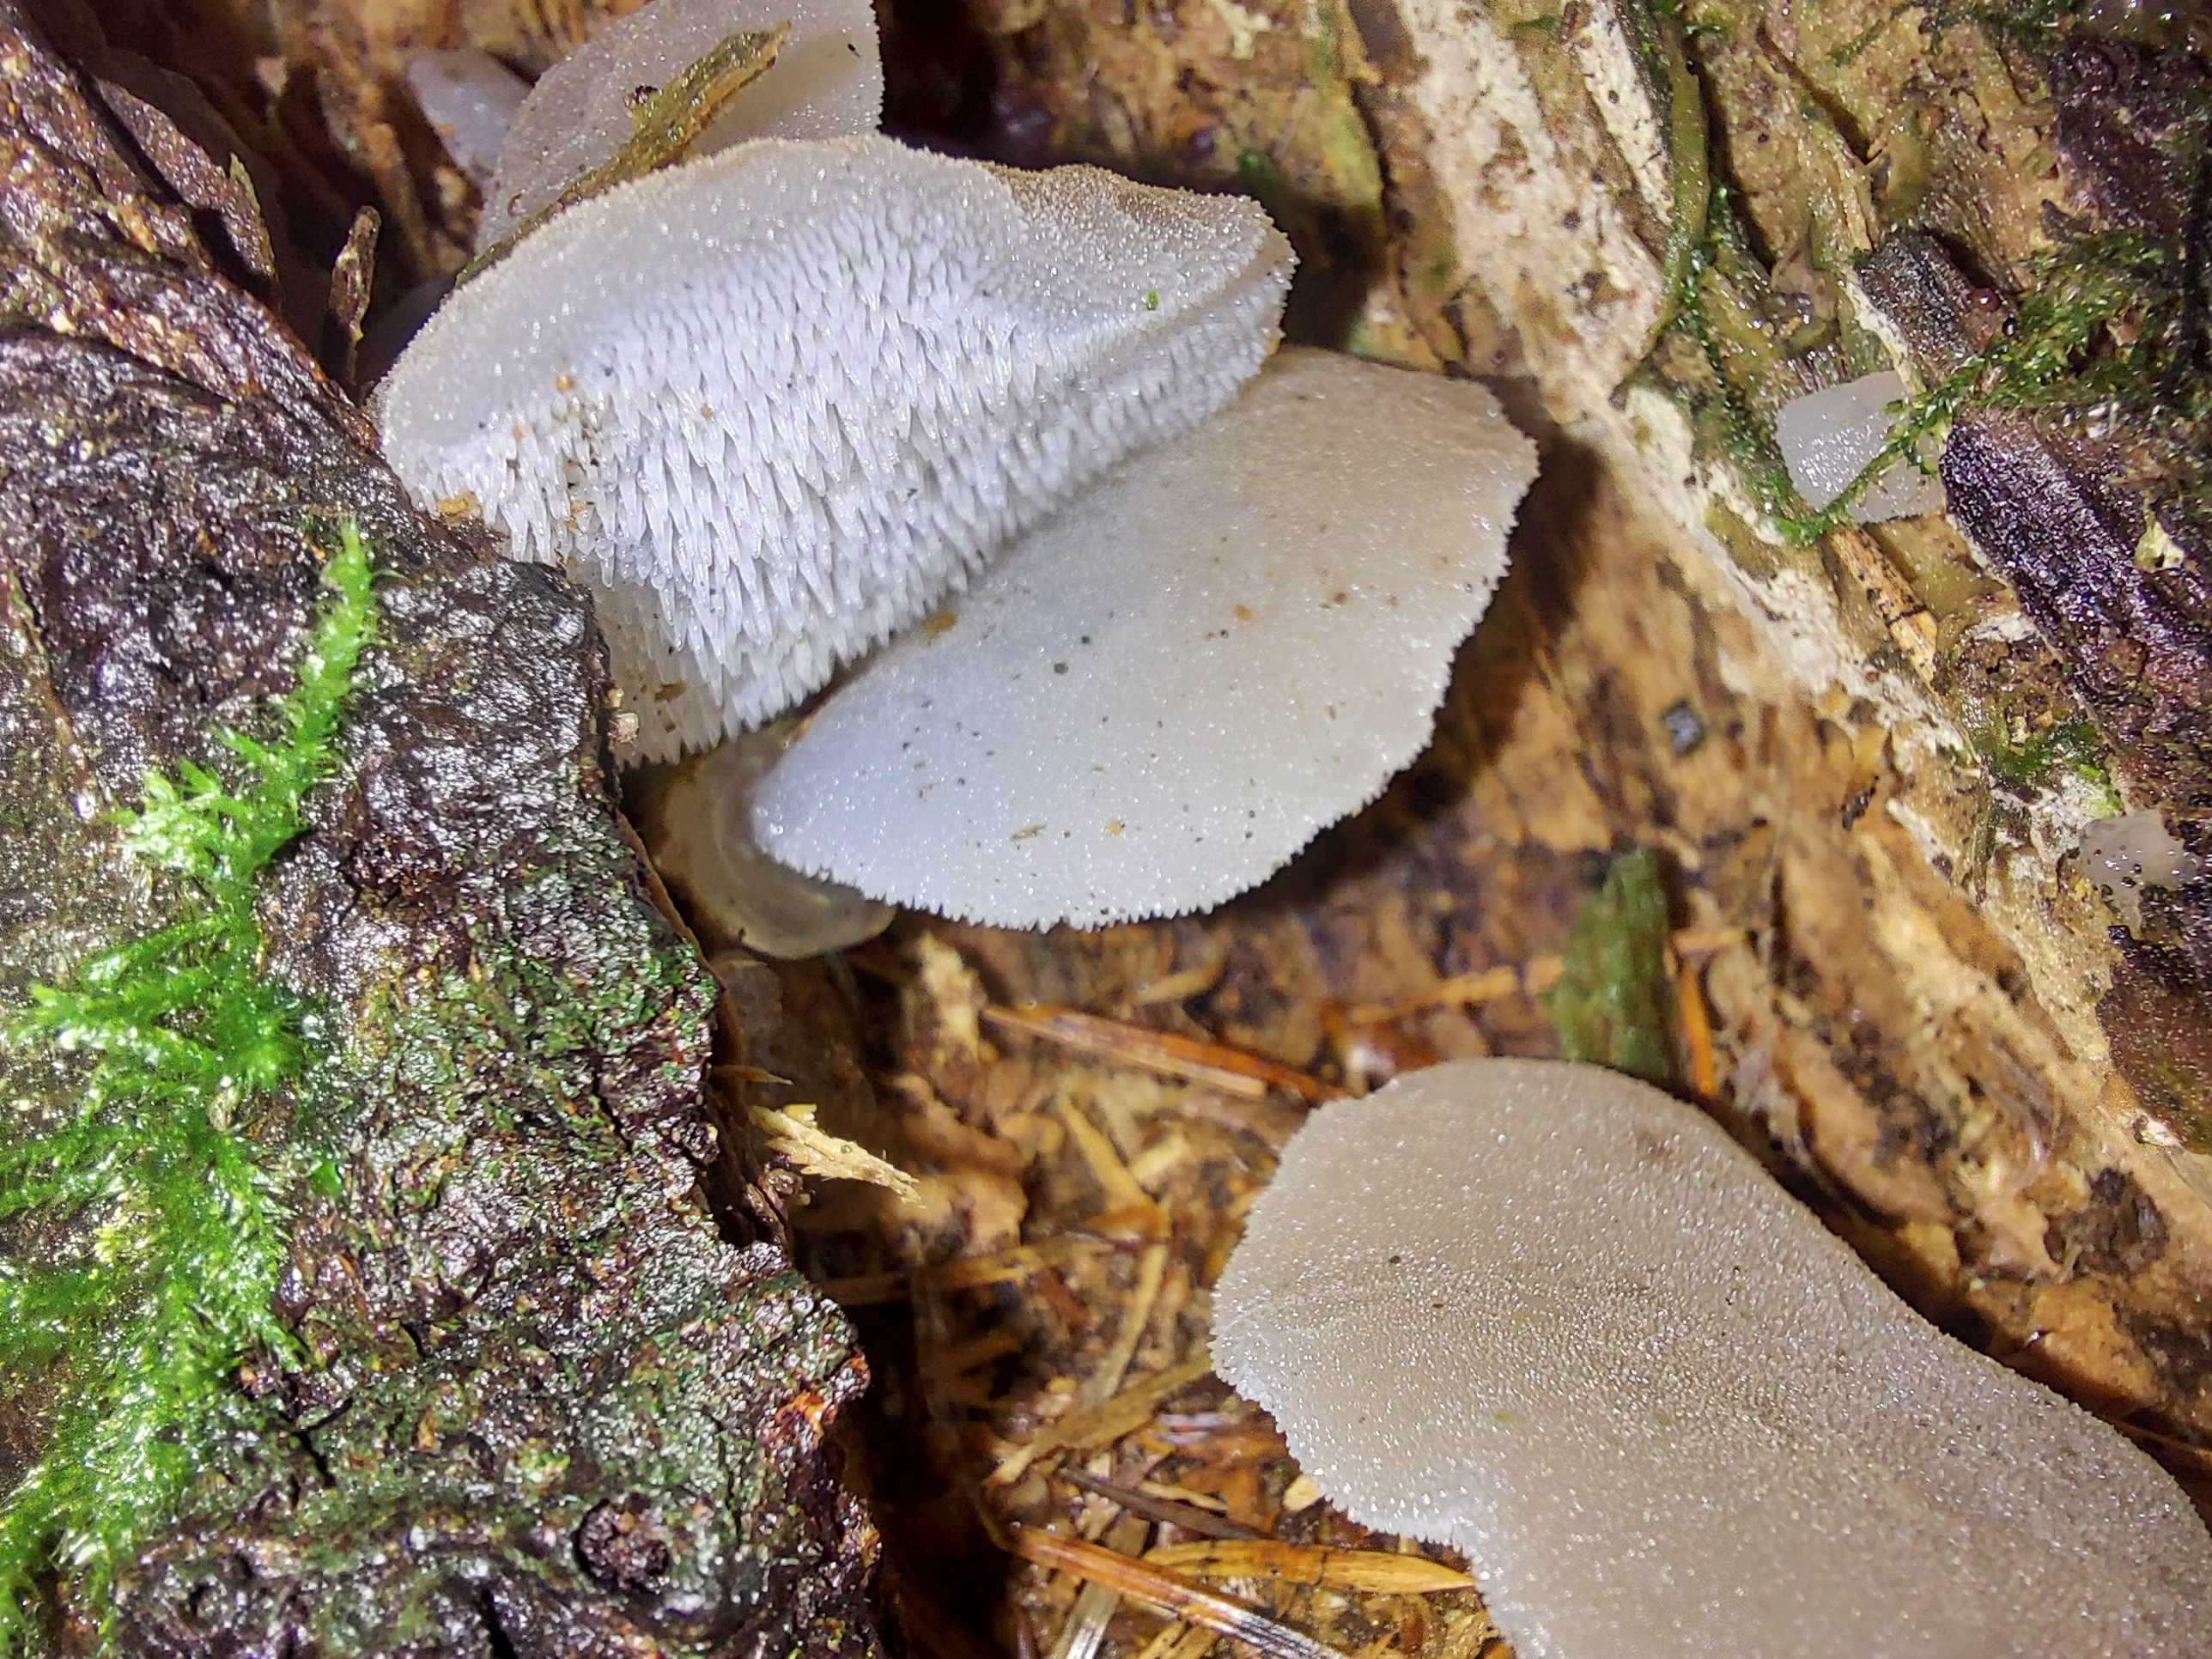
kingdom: Fungi
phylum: Basidiomycota
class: Agaricomycetes
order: Auriculariales
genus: Pseudohydnum
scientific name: Pseudohydnum gelatinosum
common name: bævretand
